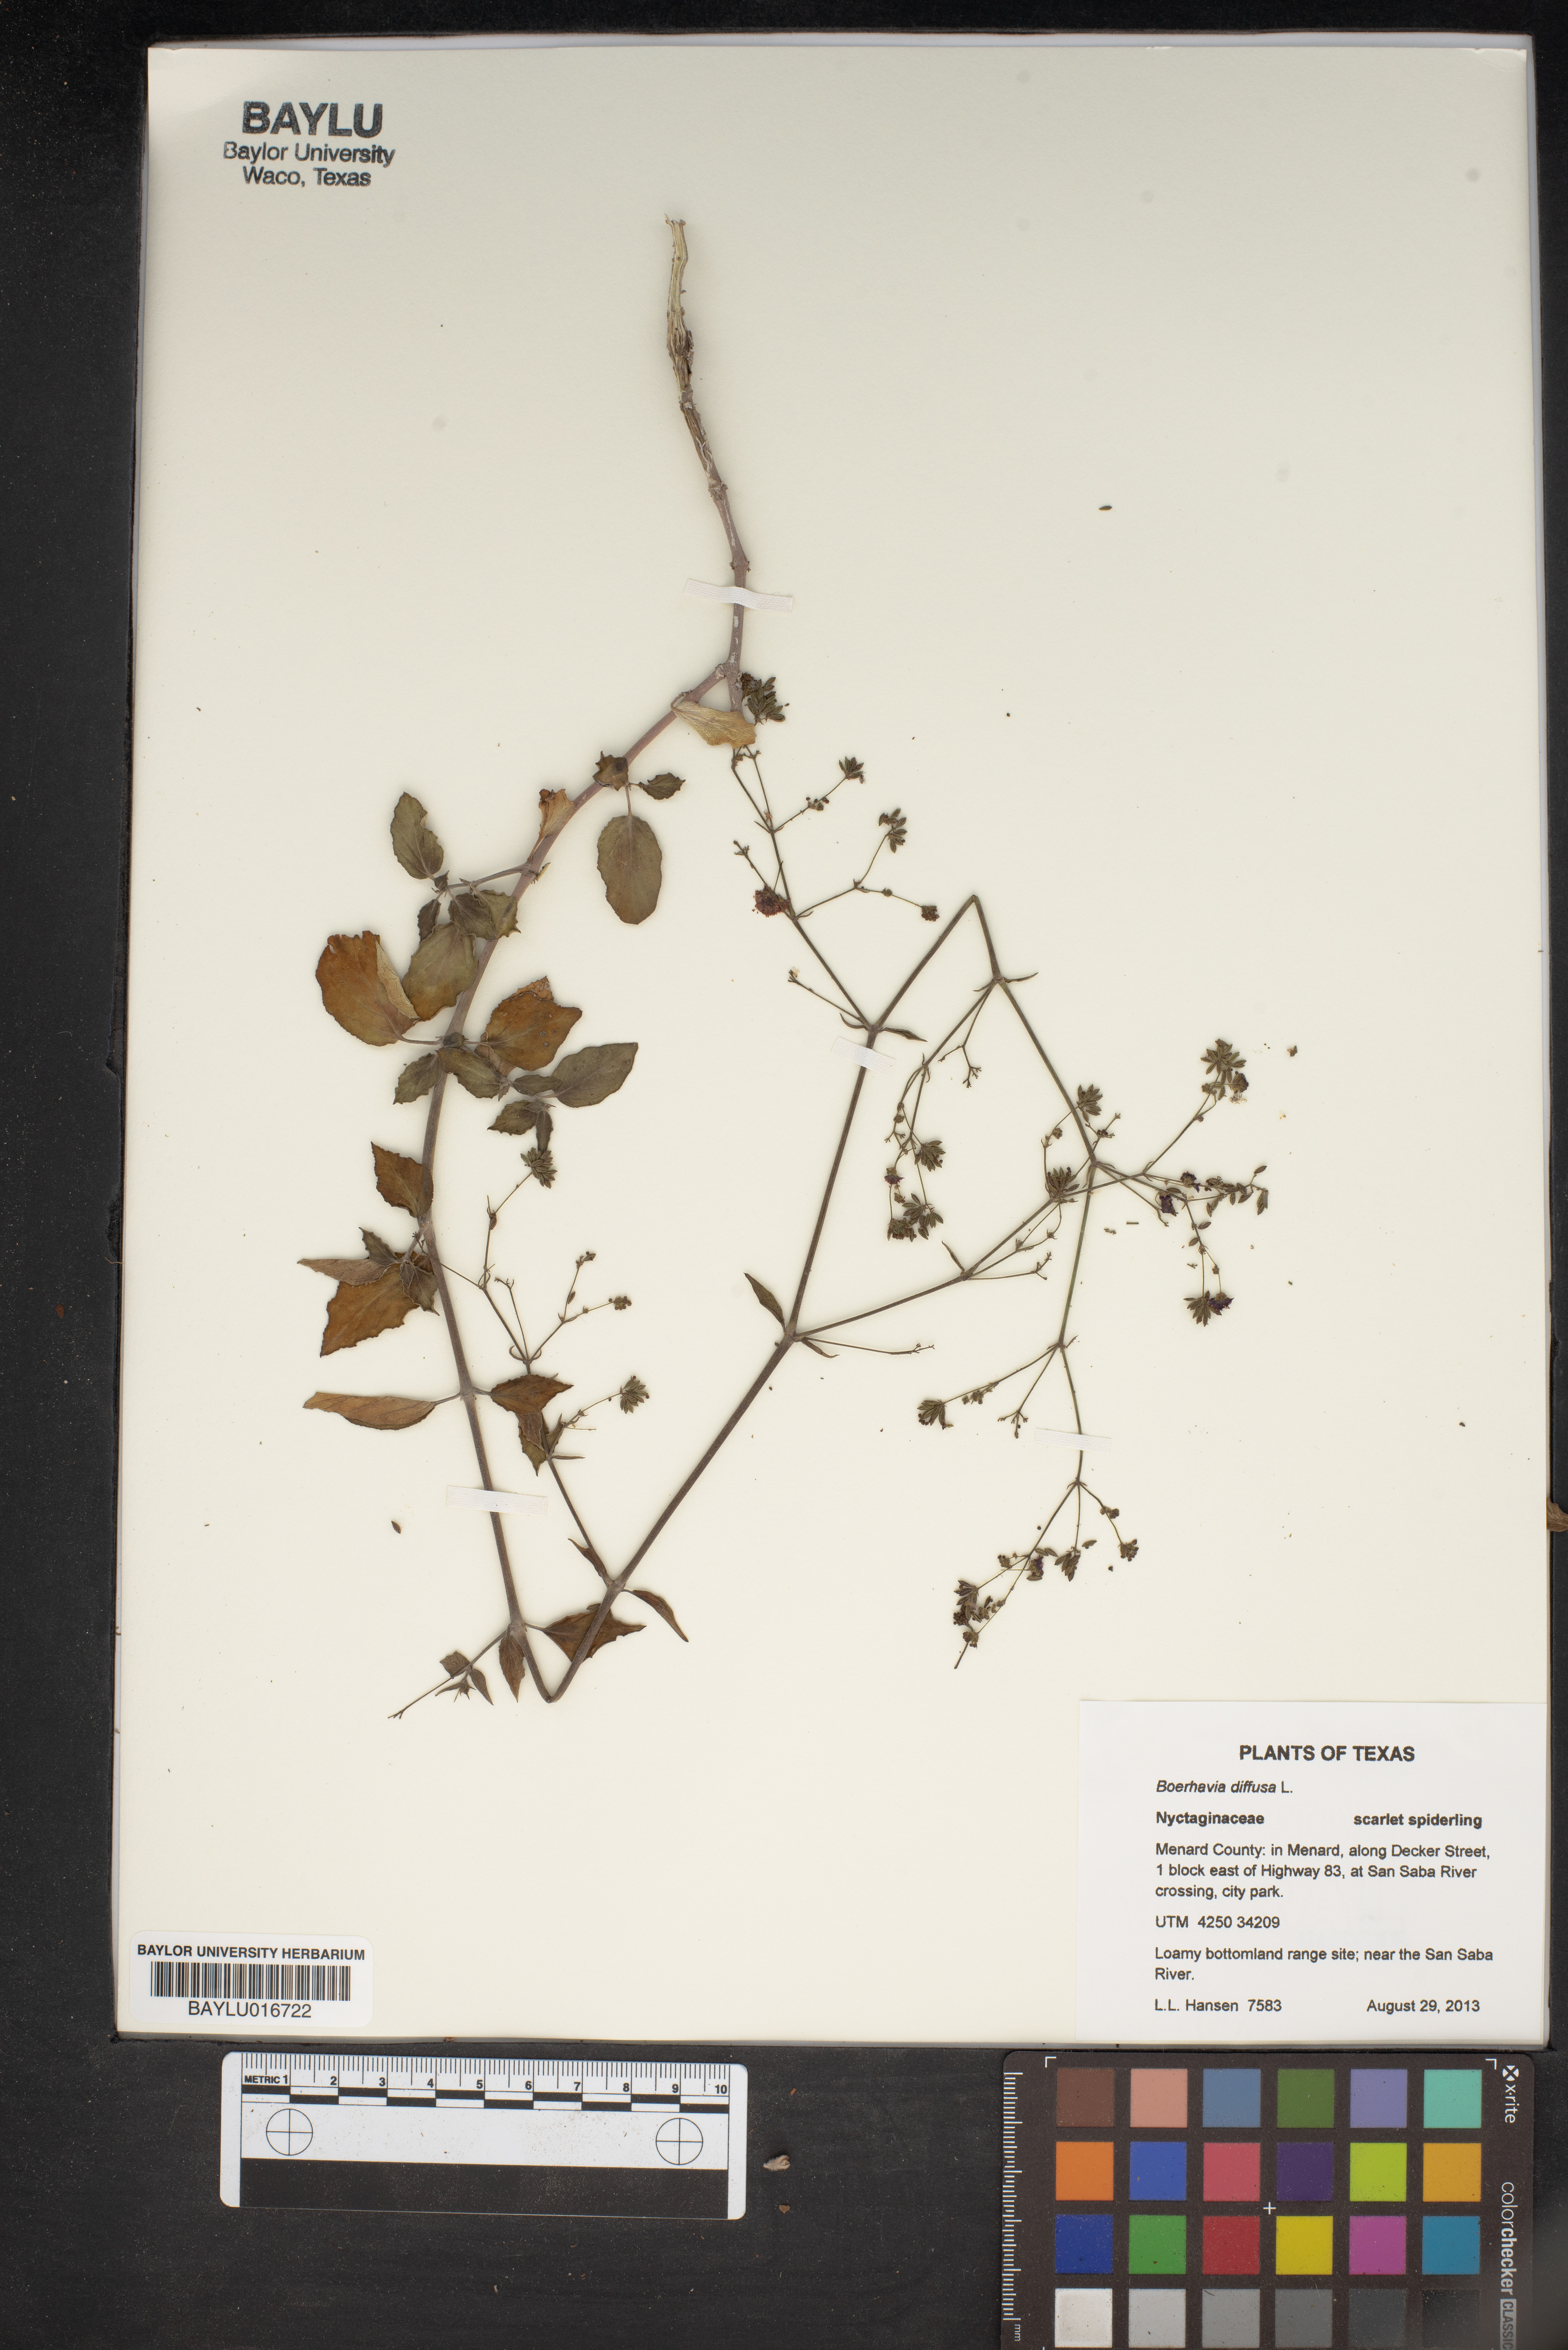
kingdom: Plantae
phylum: Tracheophyta
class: Magnoliopsida
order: Caryophyllales
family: Nyctaginaceae
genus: Boerhavia
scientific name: Boerhavia diffusa
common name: Red spiderling
